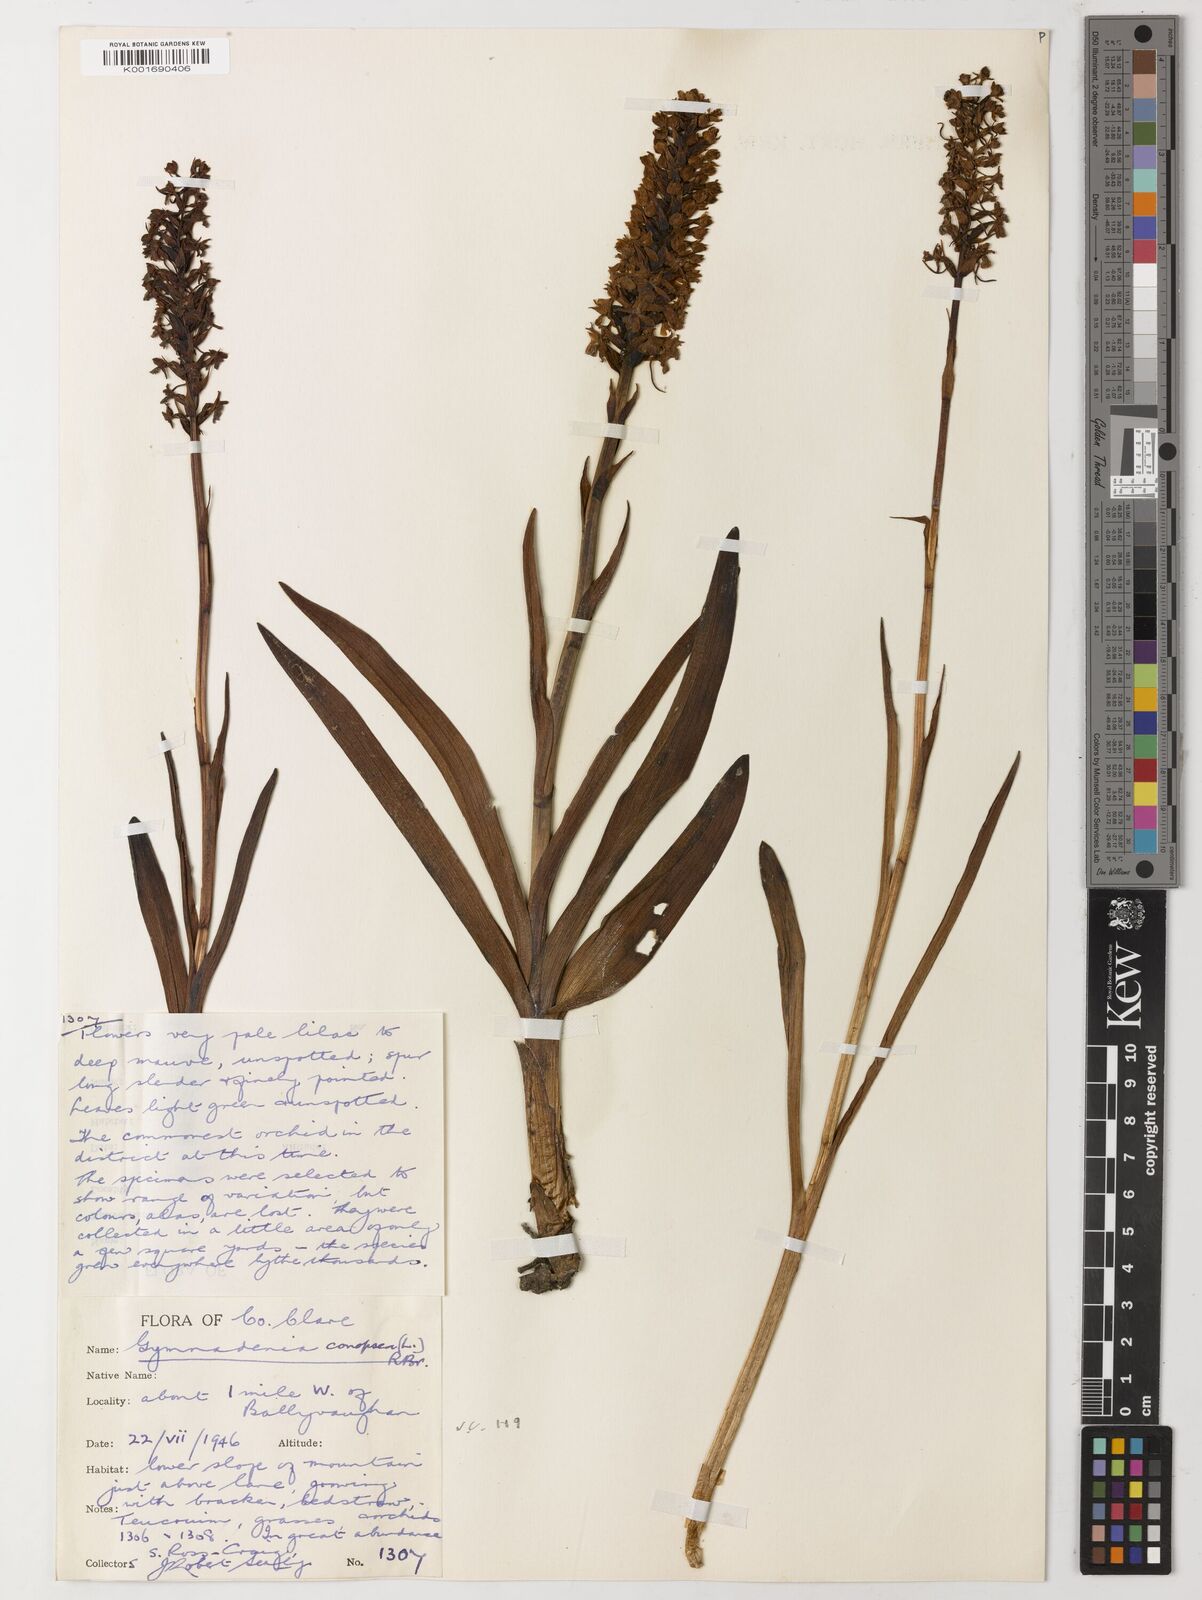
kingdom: Plantae
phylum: Tracheophyta
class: Liliopsida
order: Asparagales
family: Hypoxidaceae
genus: Hypoxis
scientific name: Hypoxis villosa
